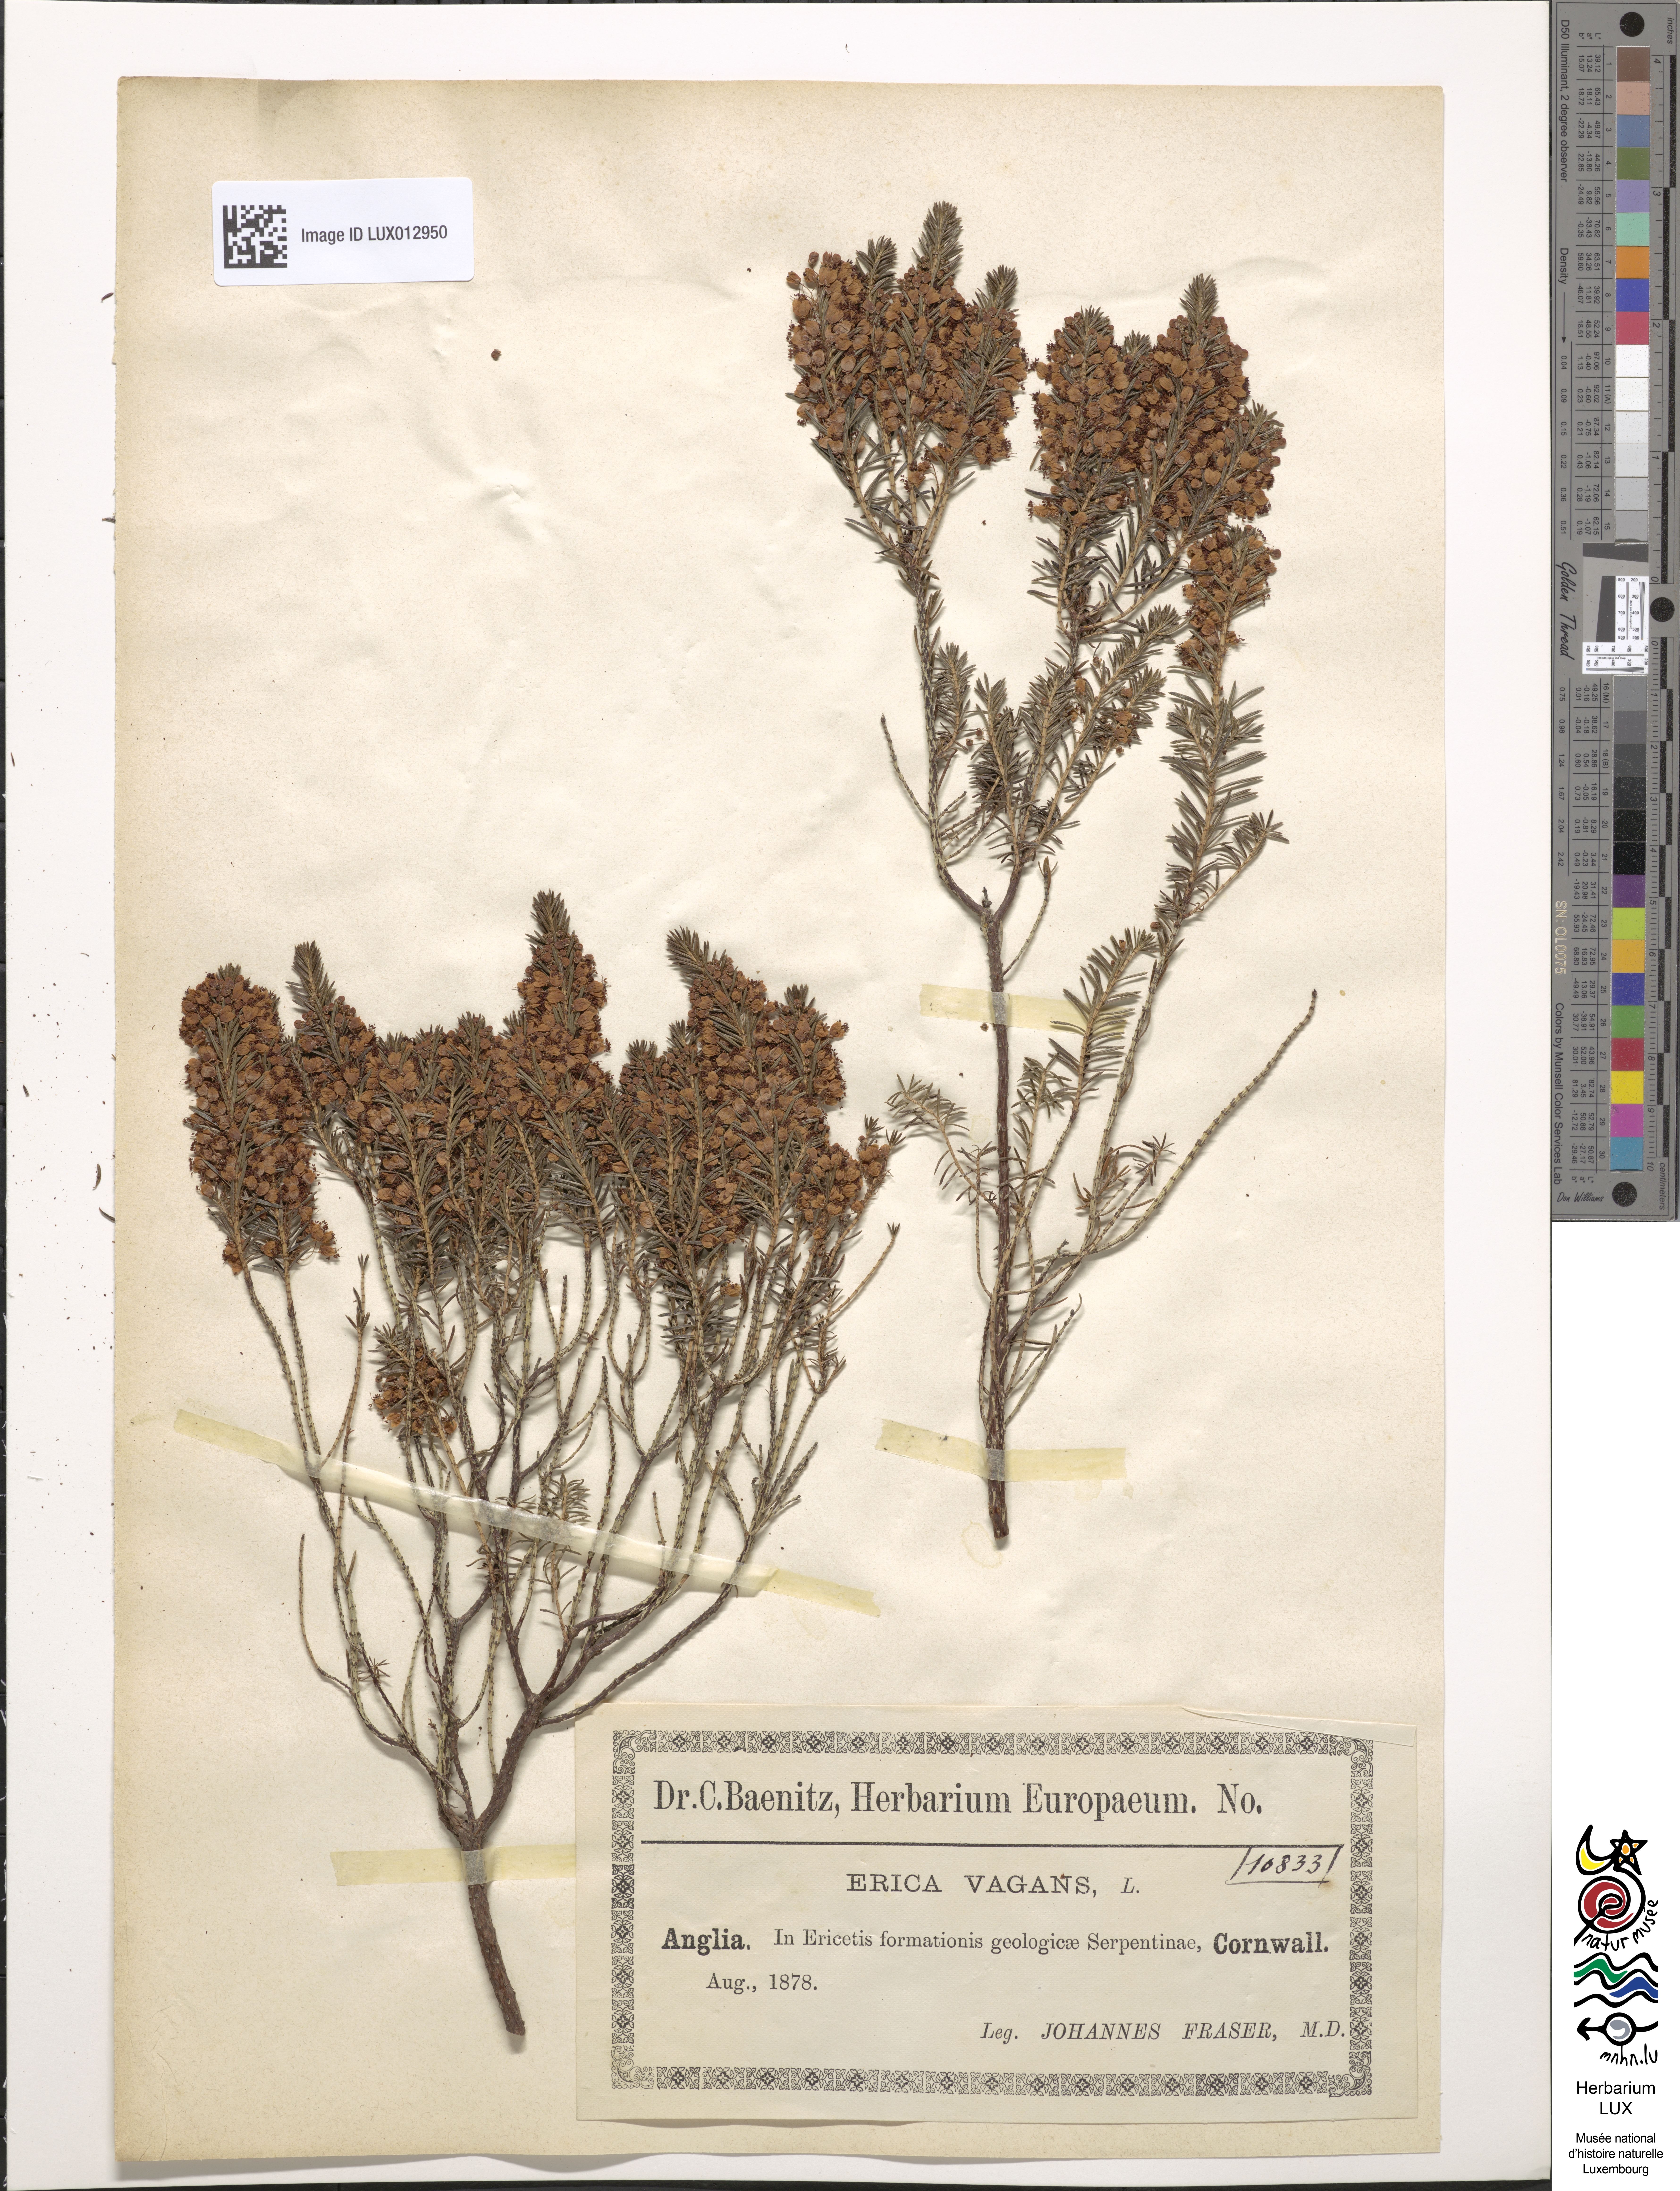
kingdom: Plantae
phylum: Tracheophyta
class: Magnoliopsida
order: Ericales
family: Ericaceae
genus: Erica
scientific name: Erica vagans
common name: Cornish heath
